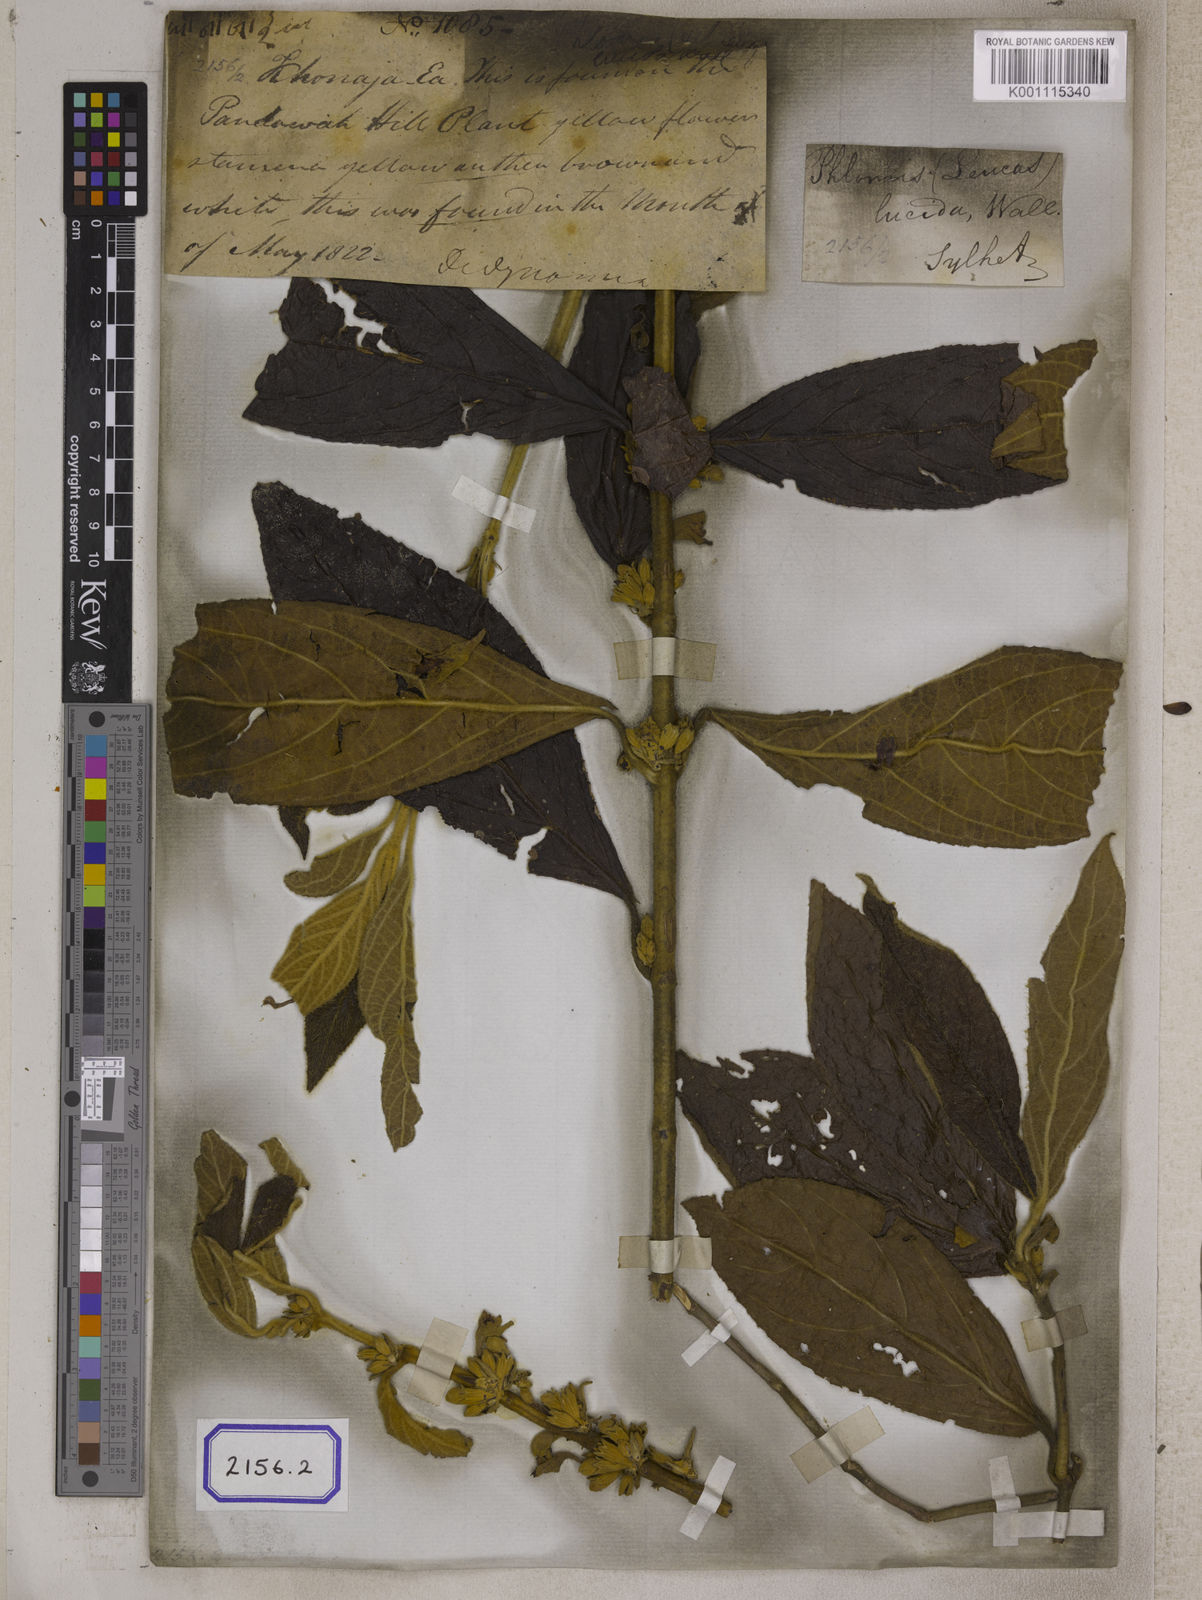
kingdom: Plantae
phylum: Tracheophyta
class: Magnoliopsida
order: Lamiales
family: Lamiaceae
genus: Gomphostemma
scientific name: Gomphostemma
